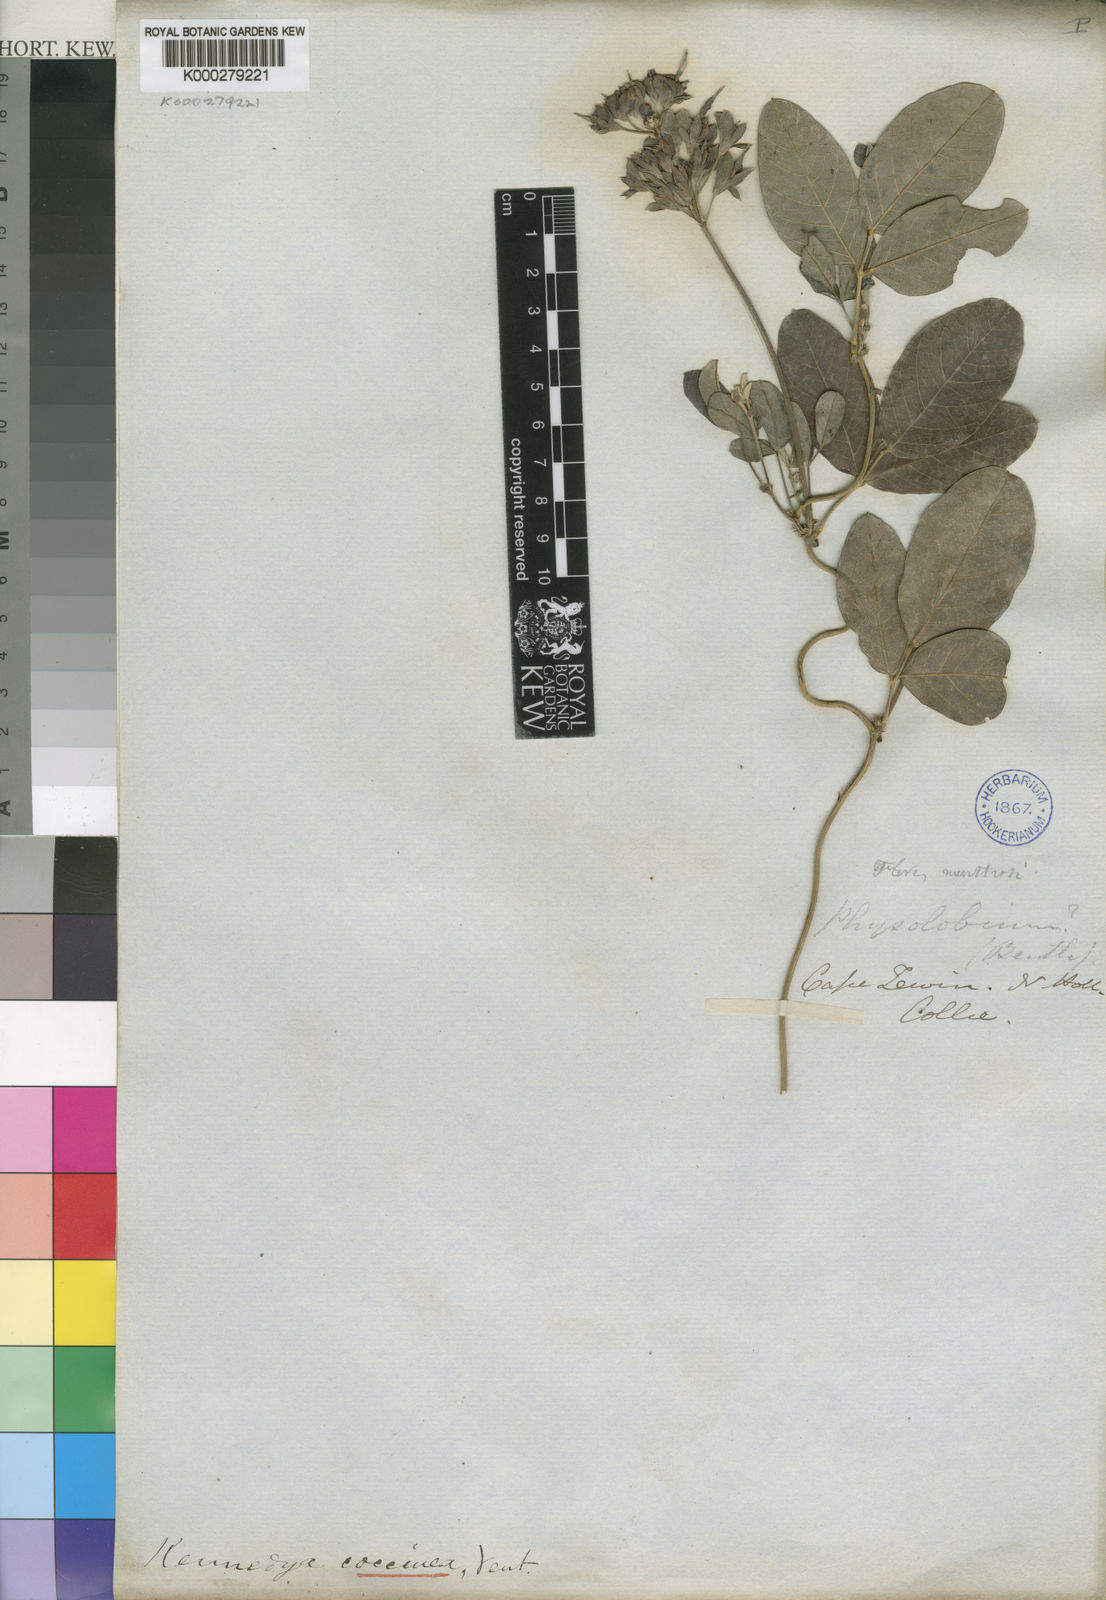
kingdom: Plantae
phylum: Tracheophyta
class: Magnoliopsida
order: Fabales
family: Fabaceae
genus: Kennedia
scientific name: Kennedia coccinea
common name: Coralvine
